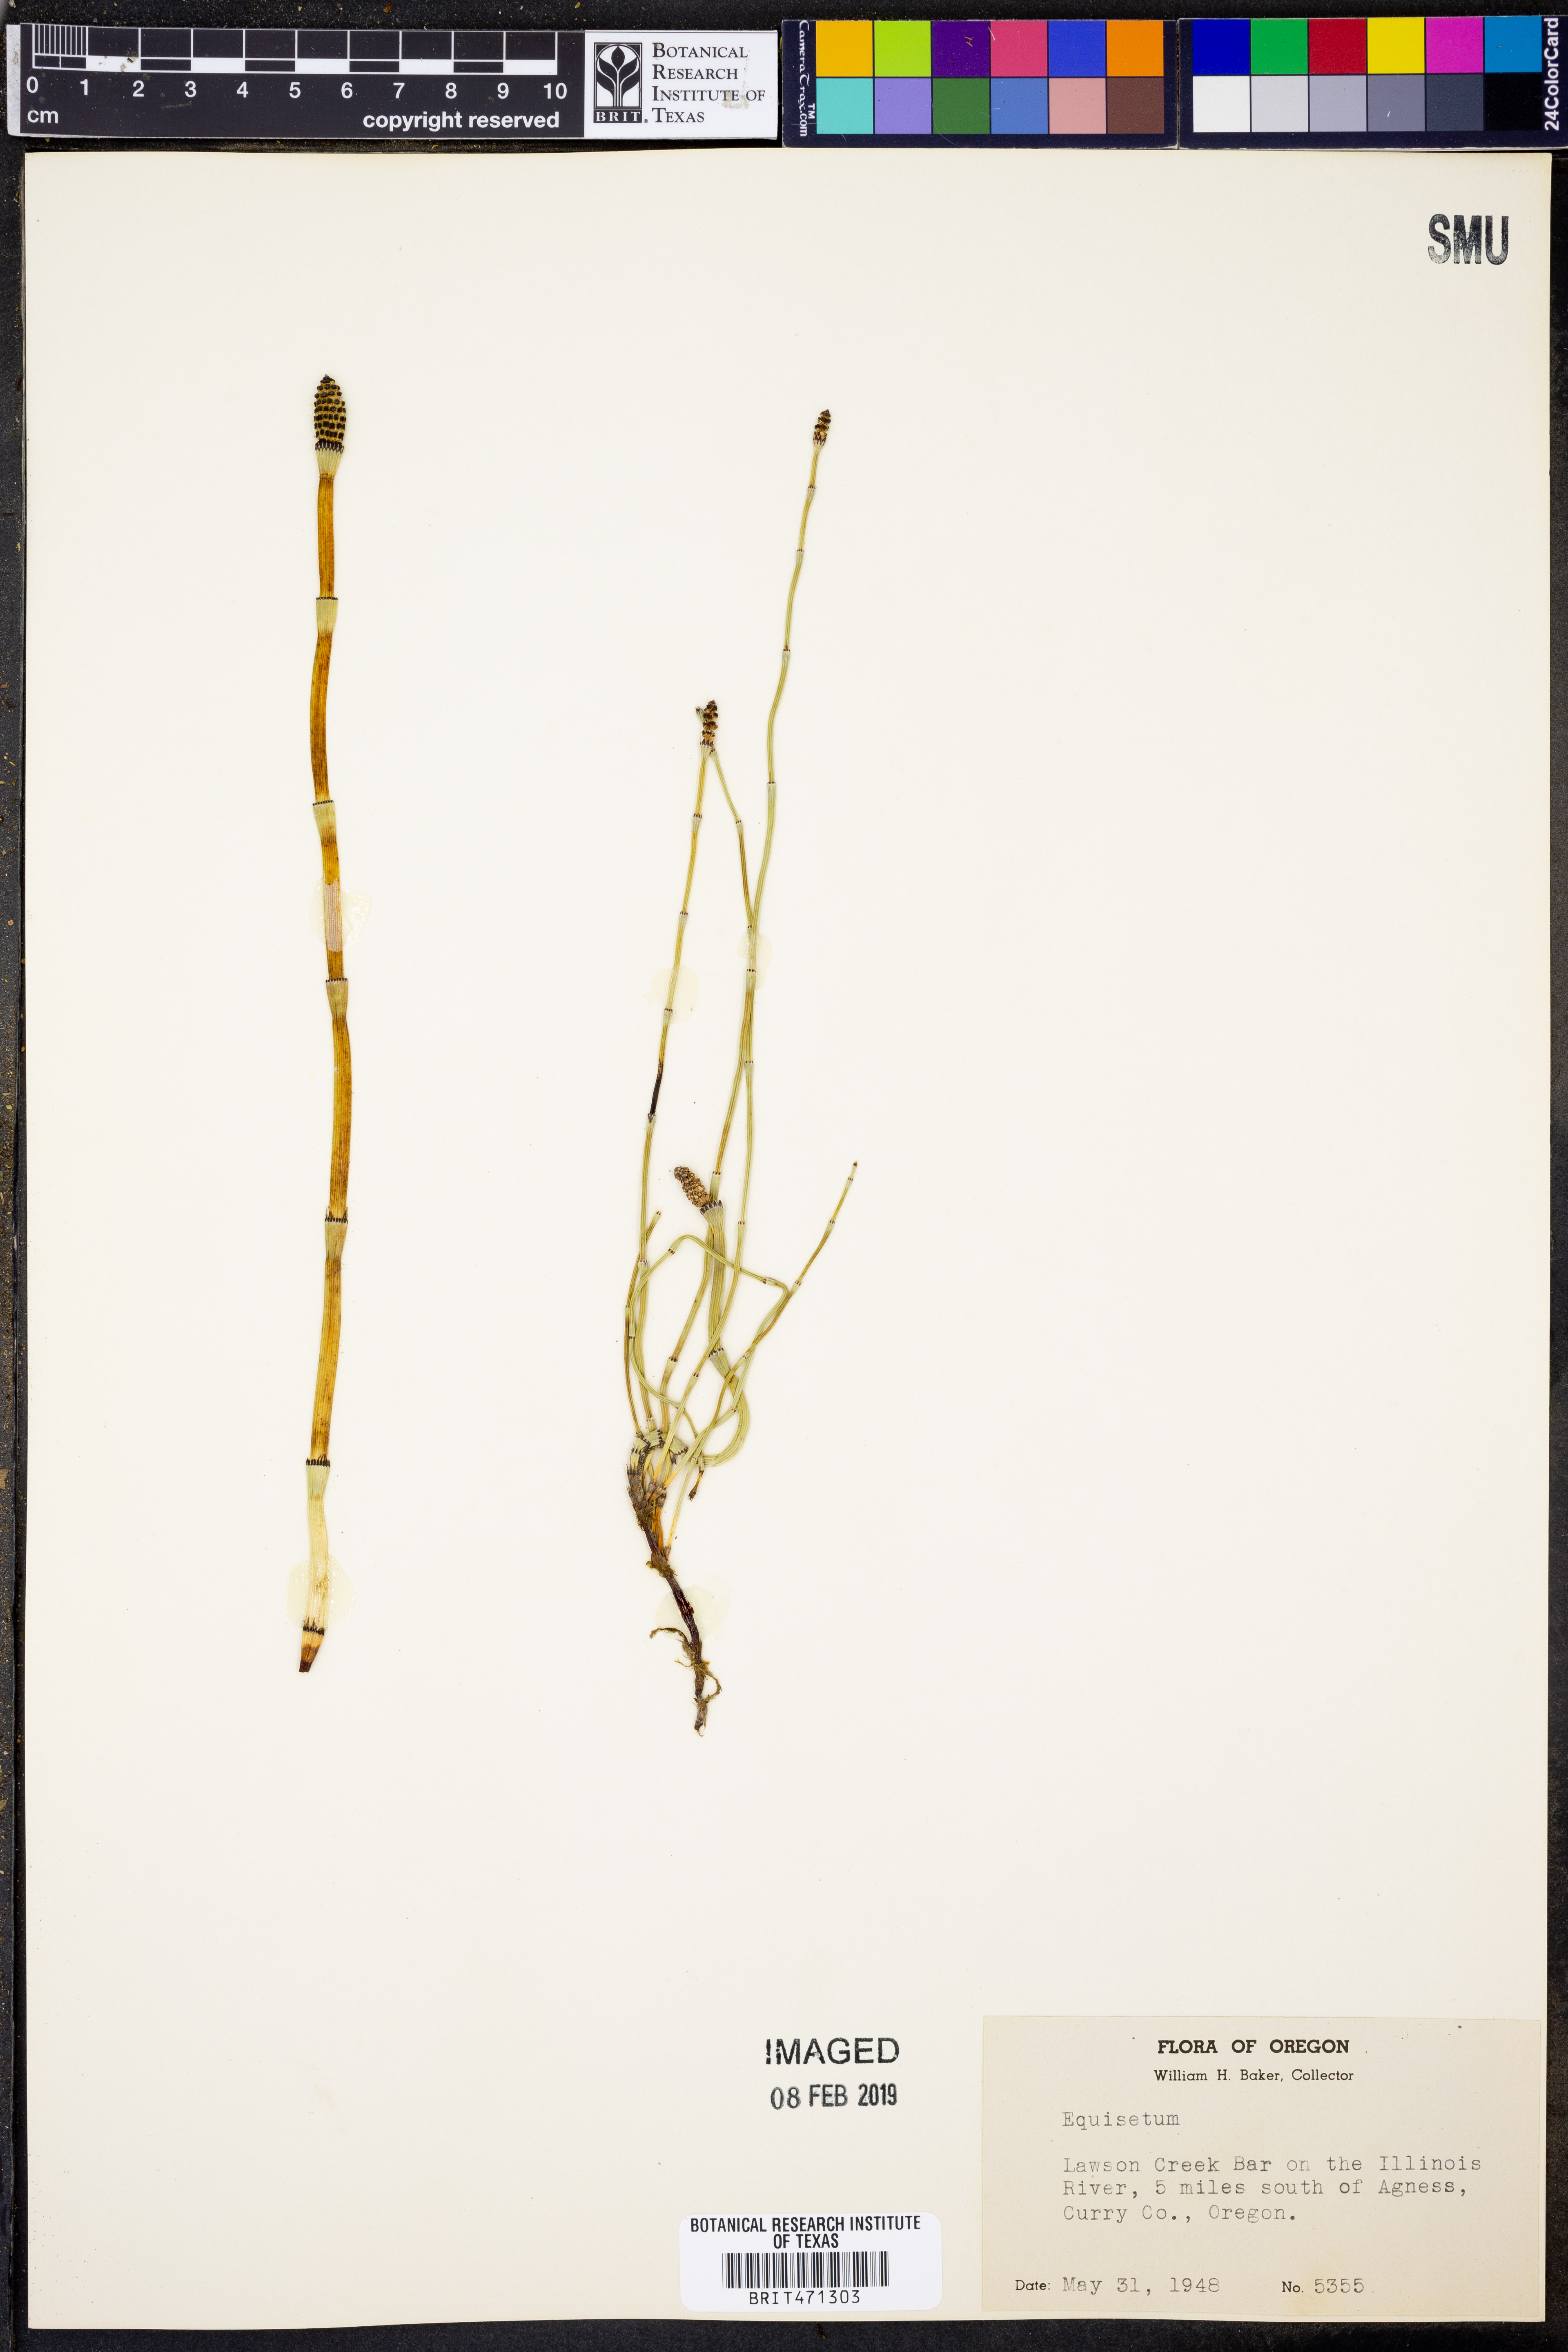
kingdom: Plantae
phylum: Tracheophyta
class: Polypodiopsida
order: Equisetales
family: Equisetaceae
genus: Equisetum
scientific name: Equisetum
